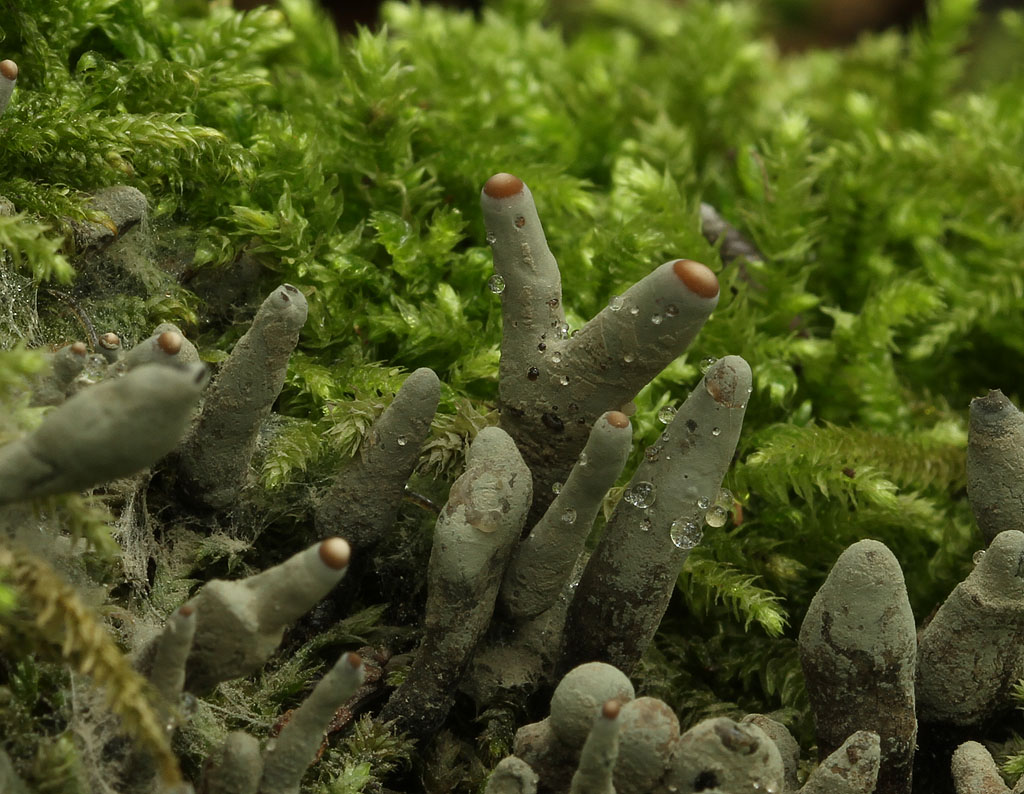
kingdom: Fungi
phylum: Ascomycota
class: Sordariomycetes
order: Xylariales
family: Xylariaceae
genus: Xylaria
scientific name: Xylaria longipes
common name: slank stødsvamp
